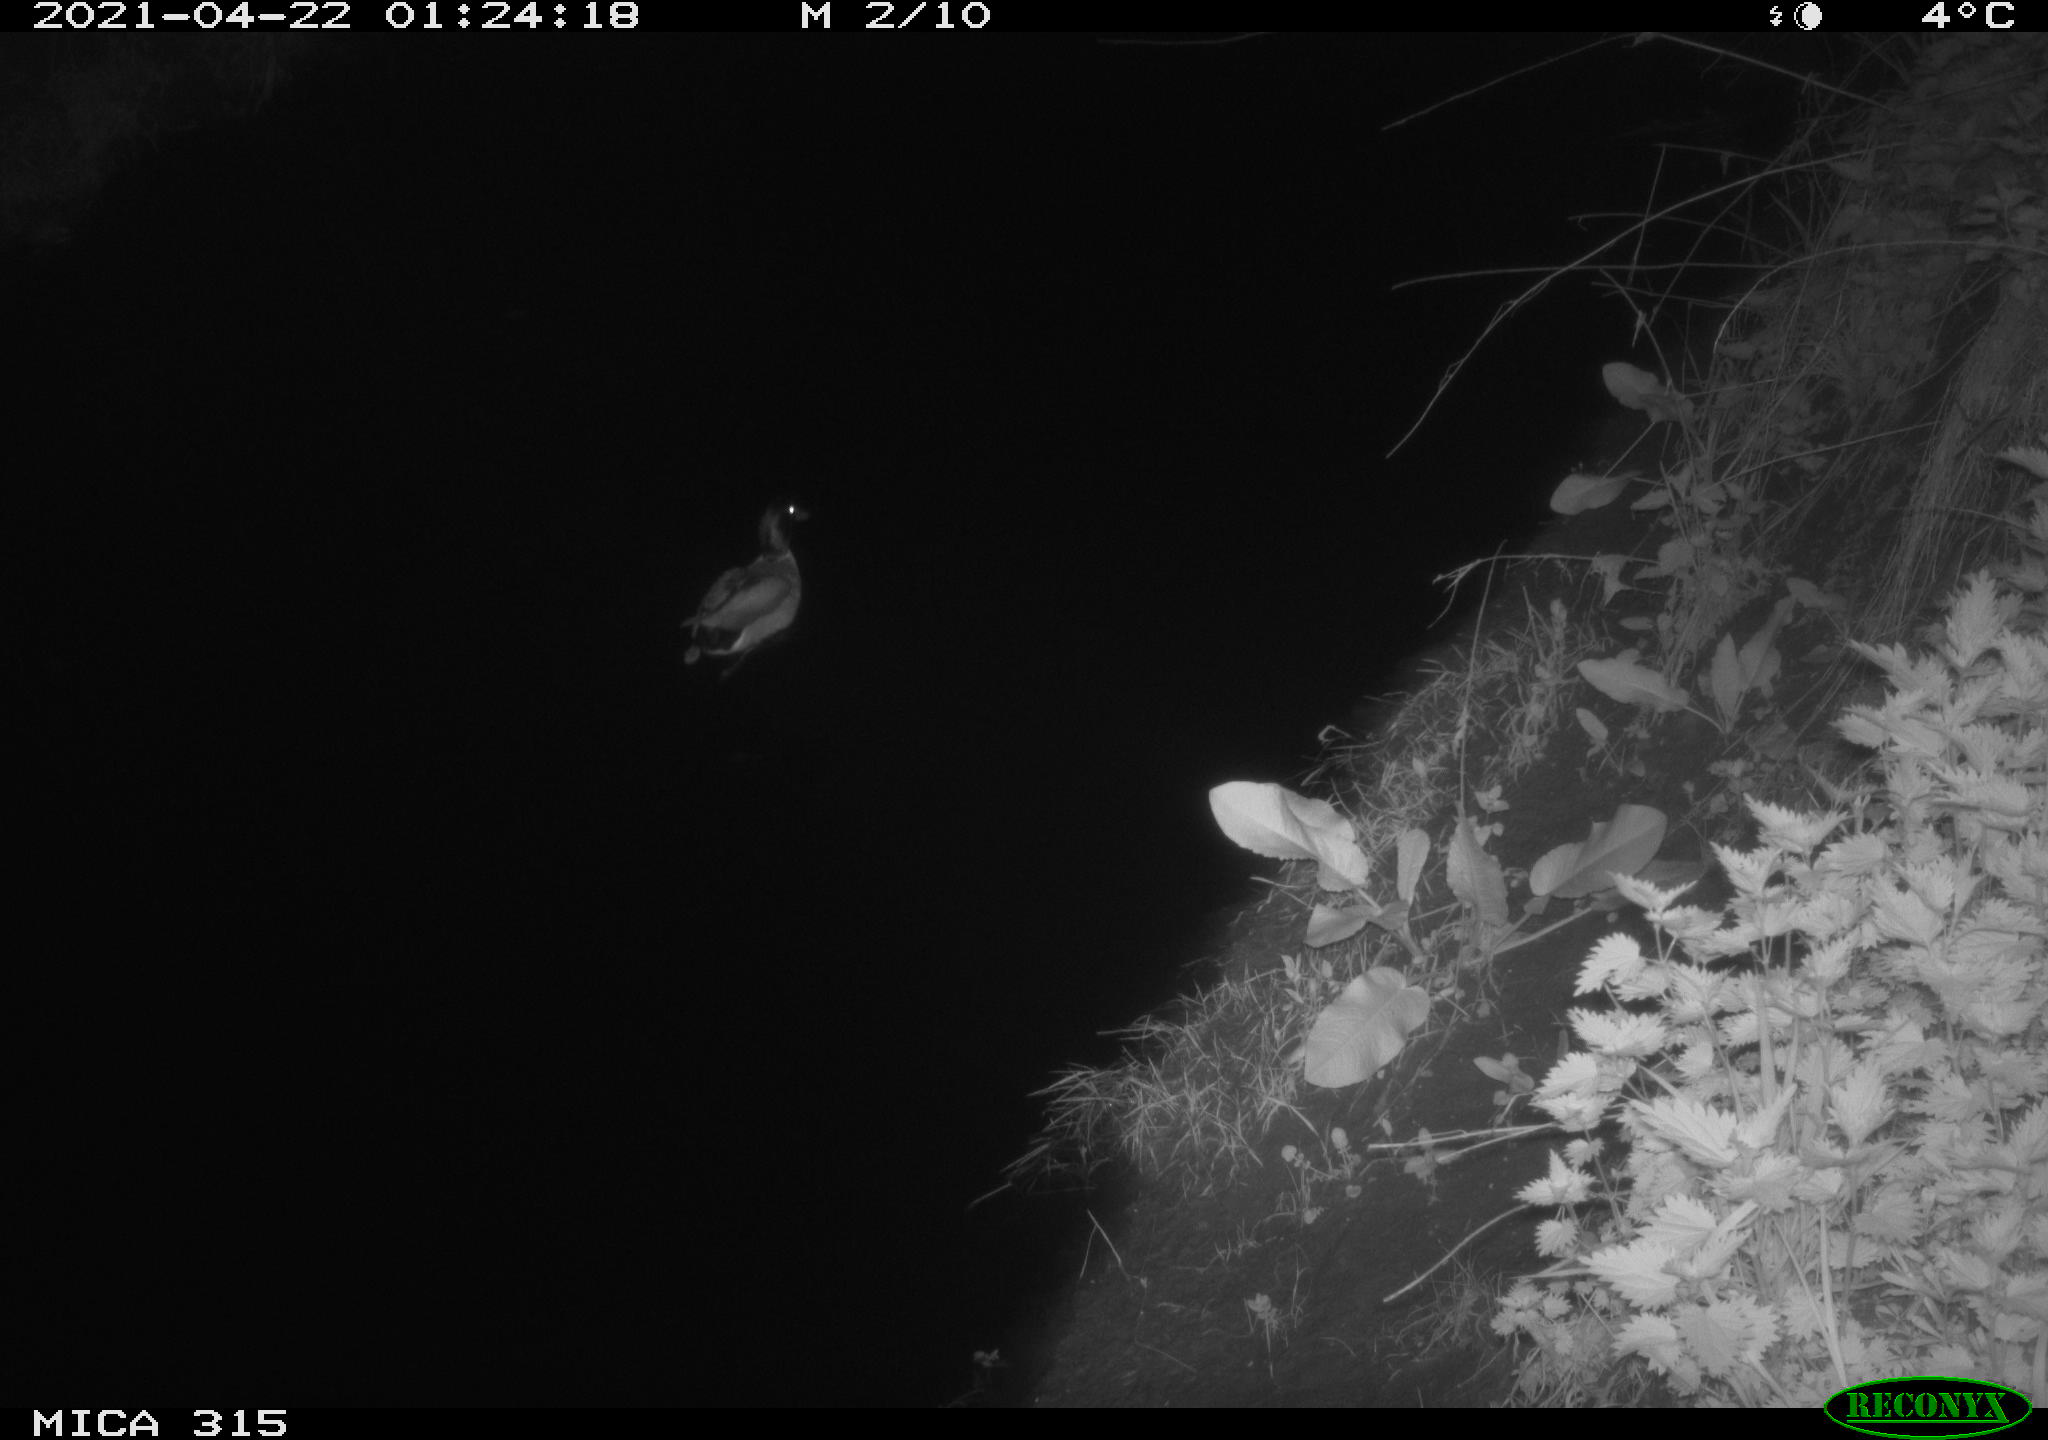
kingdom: Animalia
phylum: Chordata
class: Aves
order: Anseriformes
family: Anatidae
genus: Anas
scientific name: Anas
